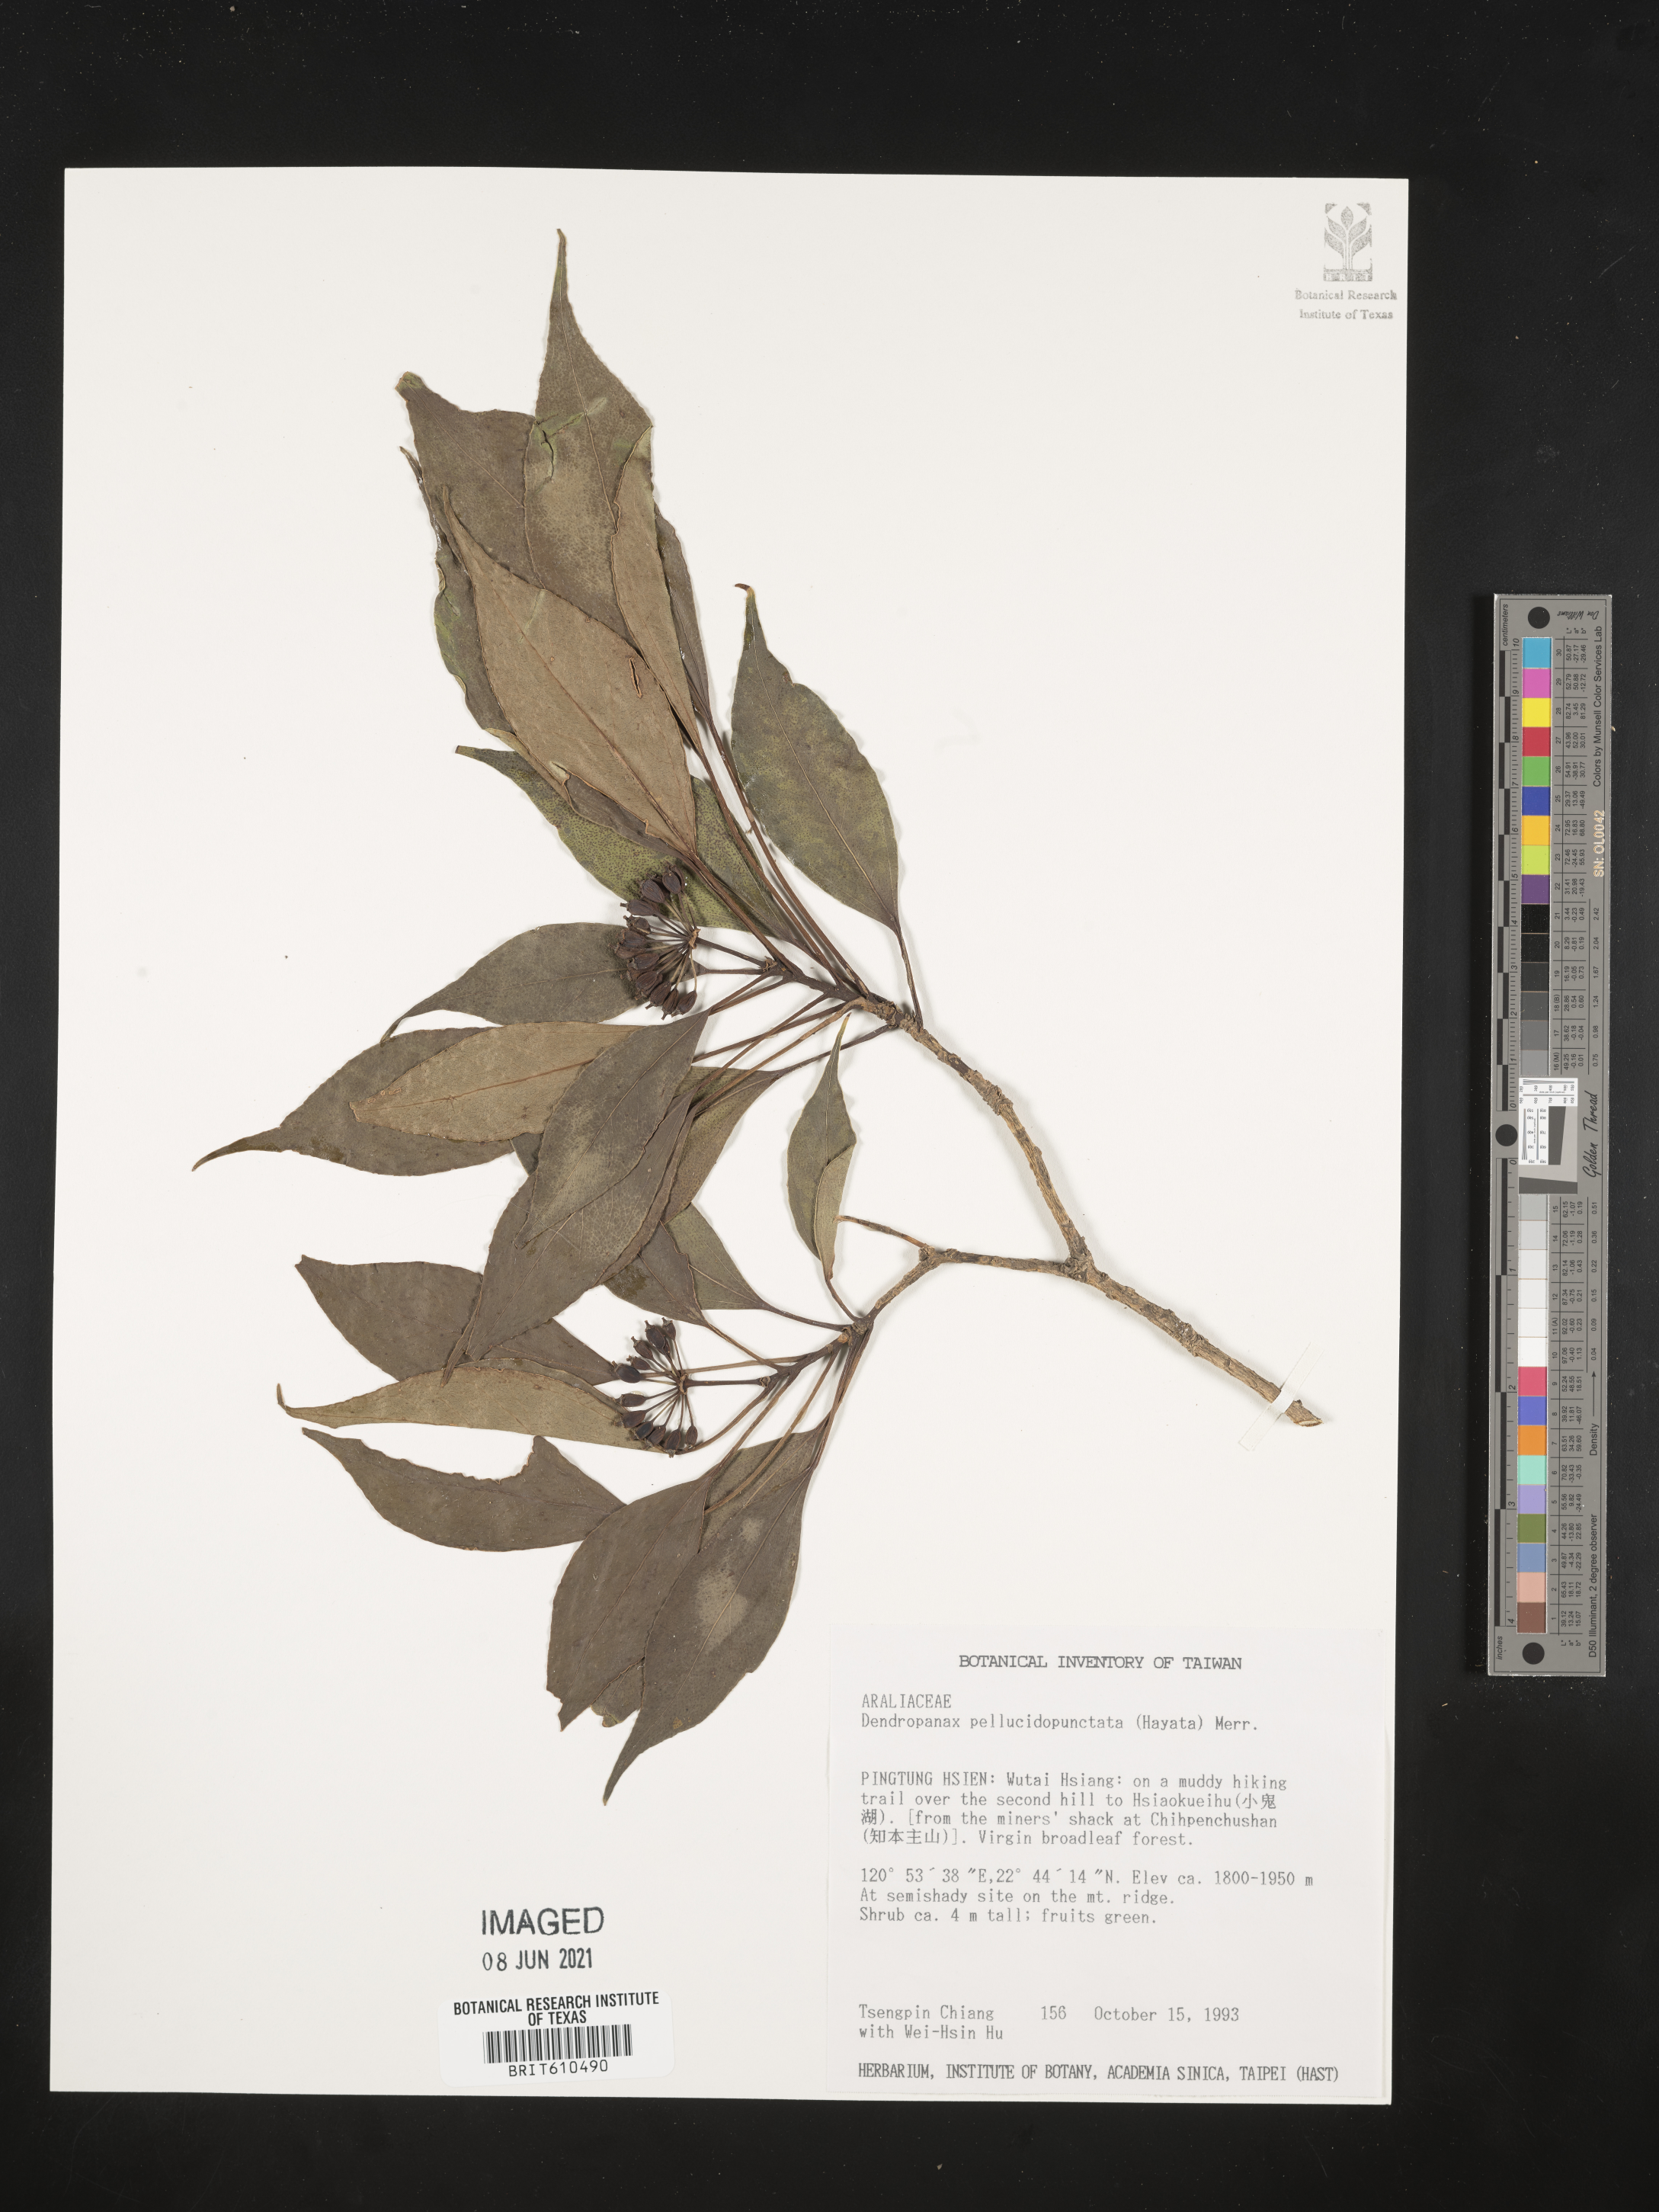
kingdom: Plantae
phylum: Tracheophyta
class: Magnoliopsida
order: Apiales
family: Araliaceae
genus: Dendropanax
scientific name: Dendropanax pellucidopunctatus
